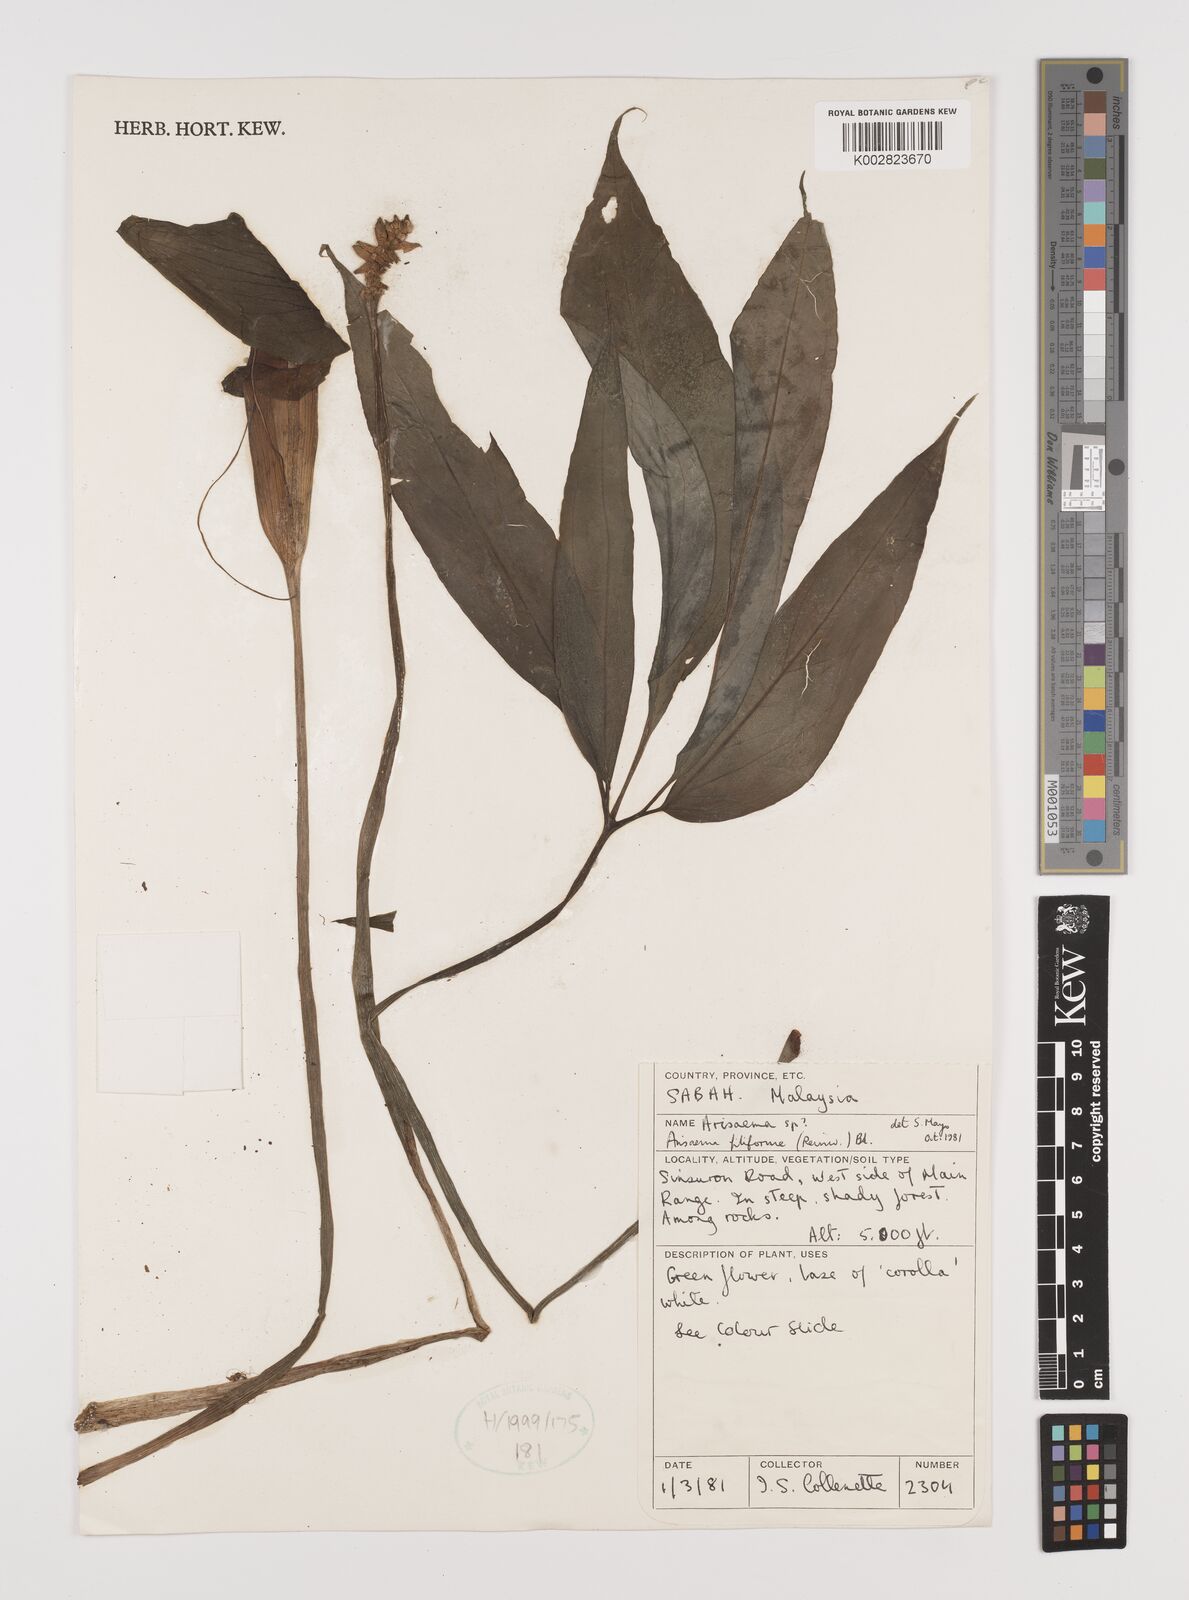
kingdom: Plantae
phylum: Tracheophyta
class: Liliopsida
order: Alismatales
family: Araceae
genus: Arisaema
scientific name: Arisaema filiforme
